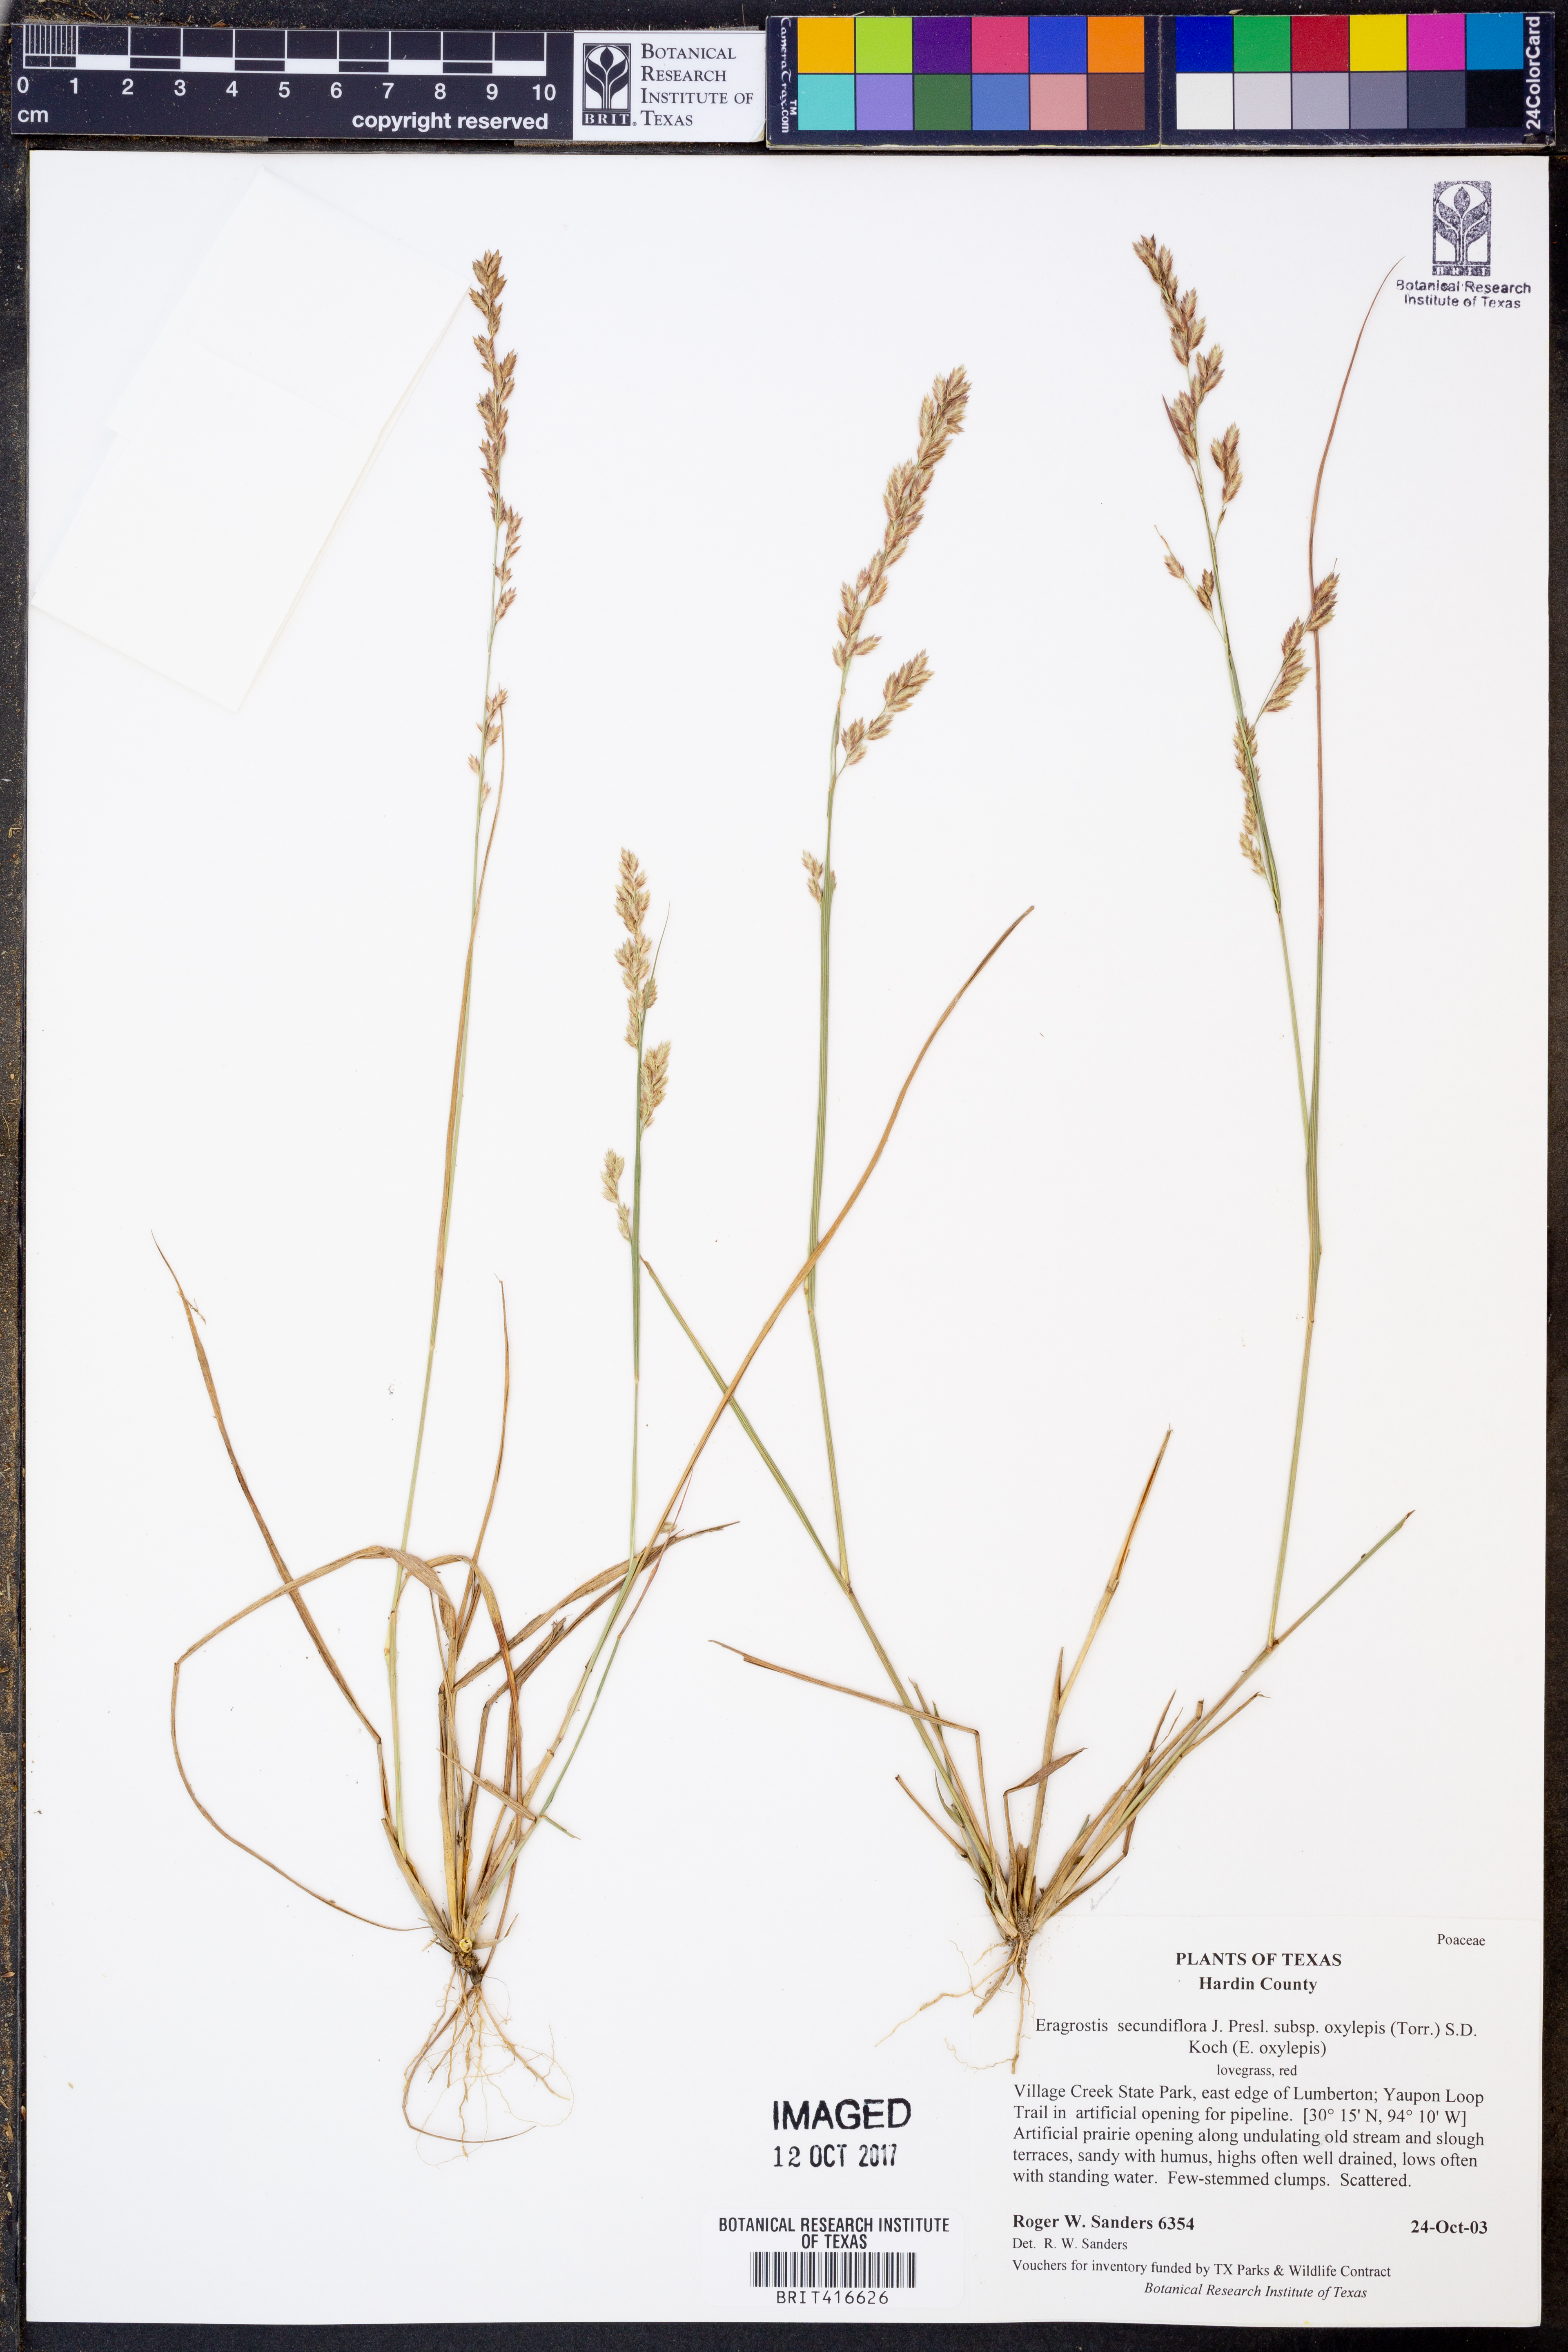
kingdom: Plantae
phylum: Tracheophyta
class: Liliopsida
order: Poales
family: Poaceae
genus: Eragrostis
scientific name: Eragrostis secundiflora
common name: Red love grass
